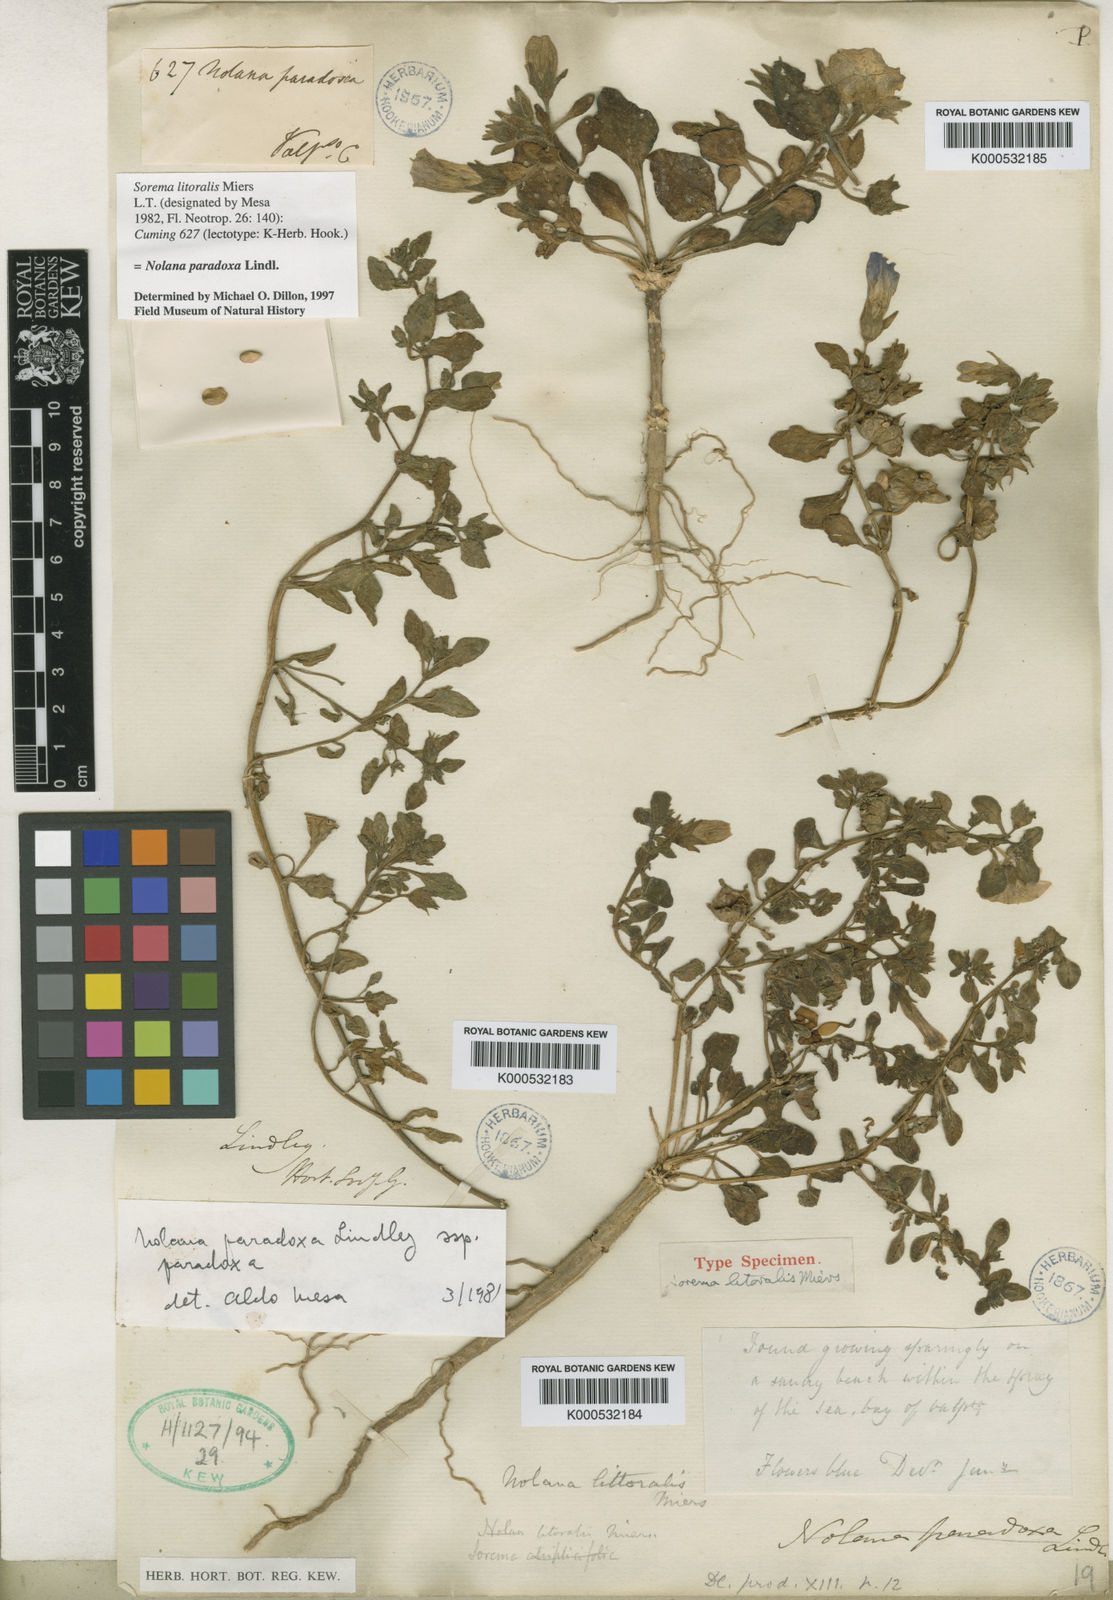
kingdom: Plantae
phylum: Tracheophyta
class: Magnoliopsida
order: Solanales
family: Solanaceae
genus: Nolana
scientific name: Nolana paradoxa
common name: Chilean-bellflower
